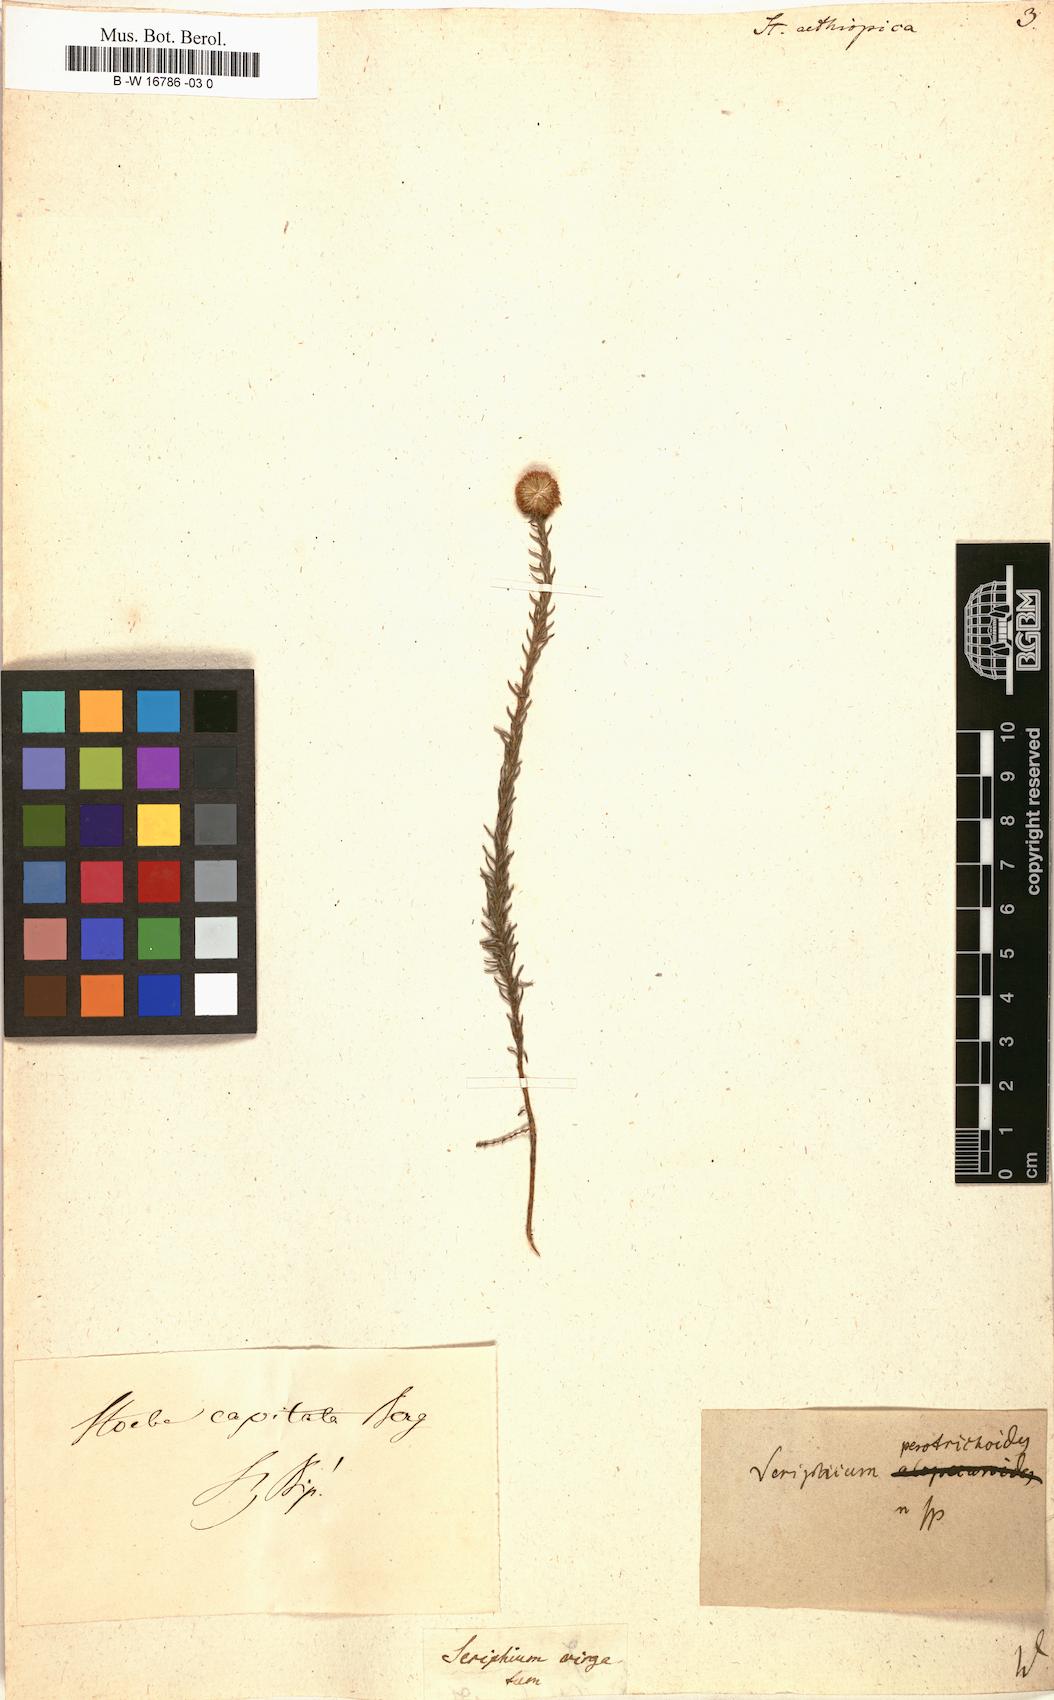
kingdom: Plantae
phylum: Tracheophyta
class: Magnoliopsida
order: Asterales
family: Asteraceae
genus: Stoebe
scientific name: Stoebe aethiopica
